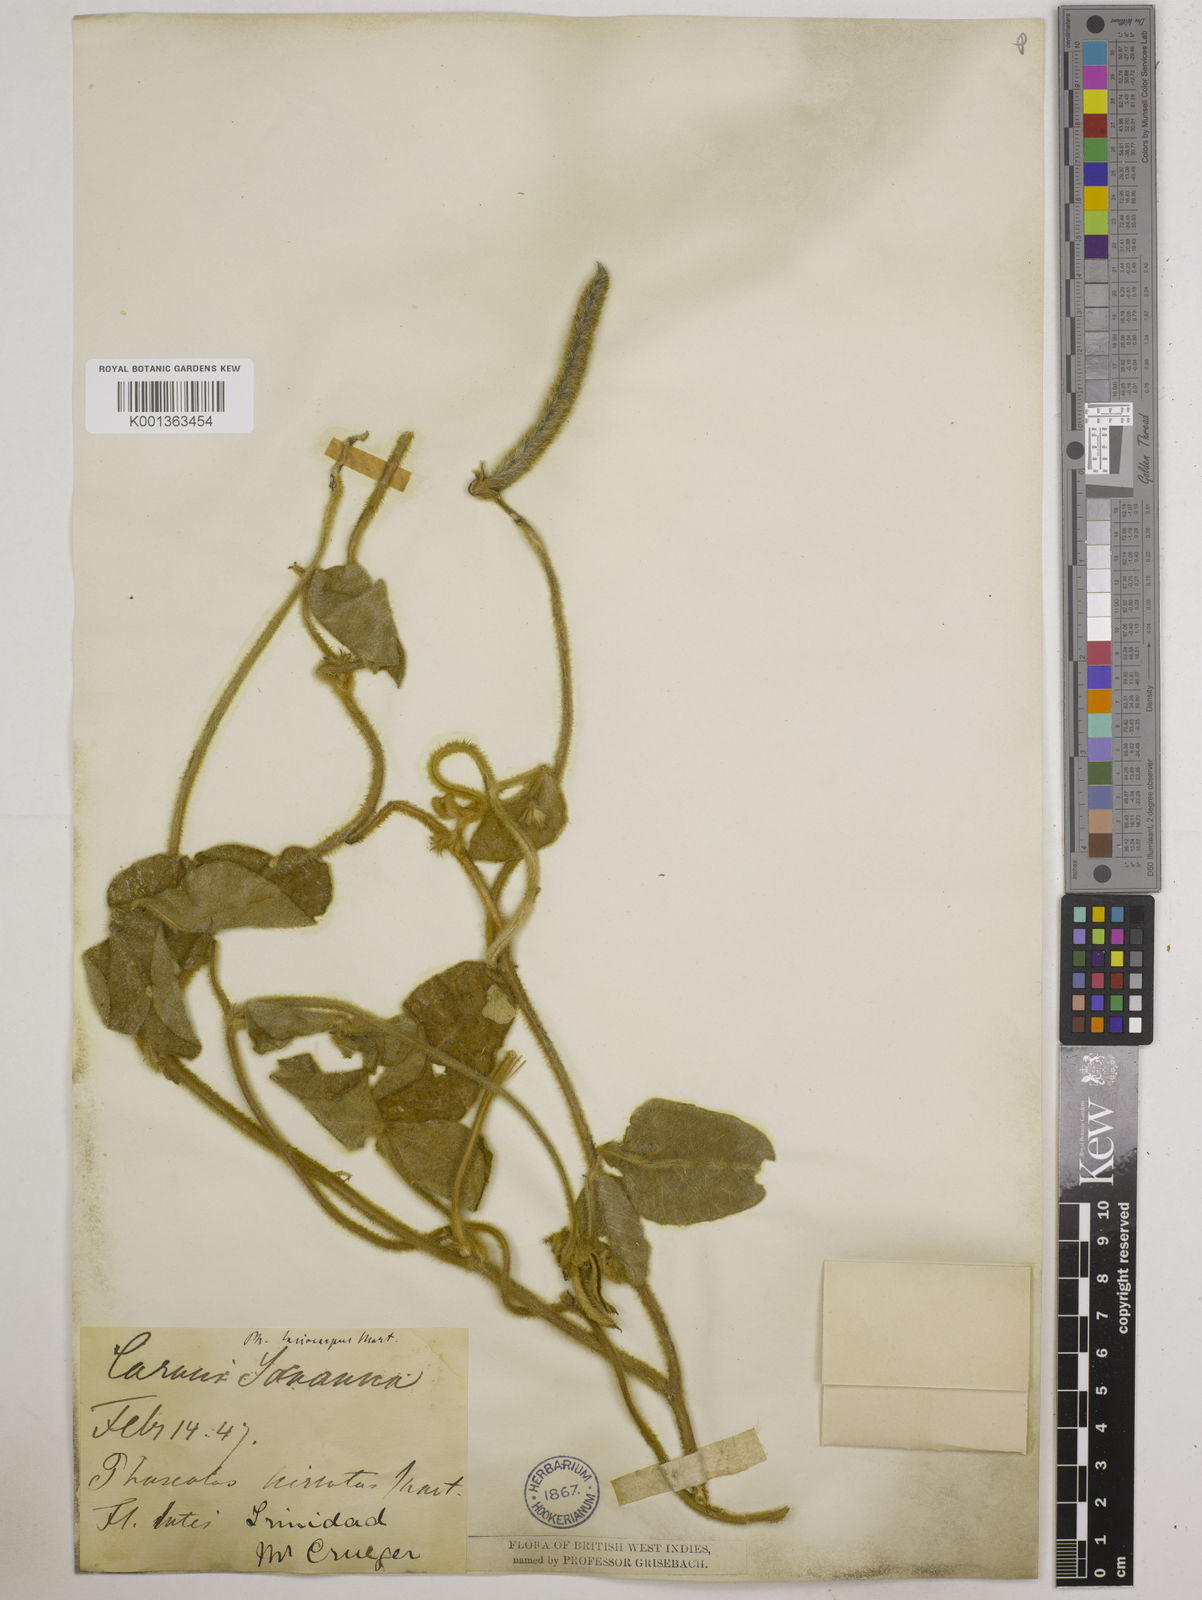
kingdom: Plantae
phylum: Tracheophyta
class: Magnoliopsida
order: Fabales
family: Fabaceae
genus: Vigna
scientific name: Vigna lasiocarpa
